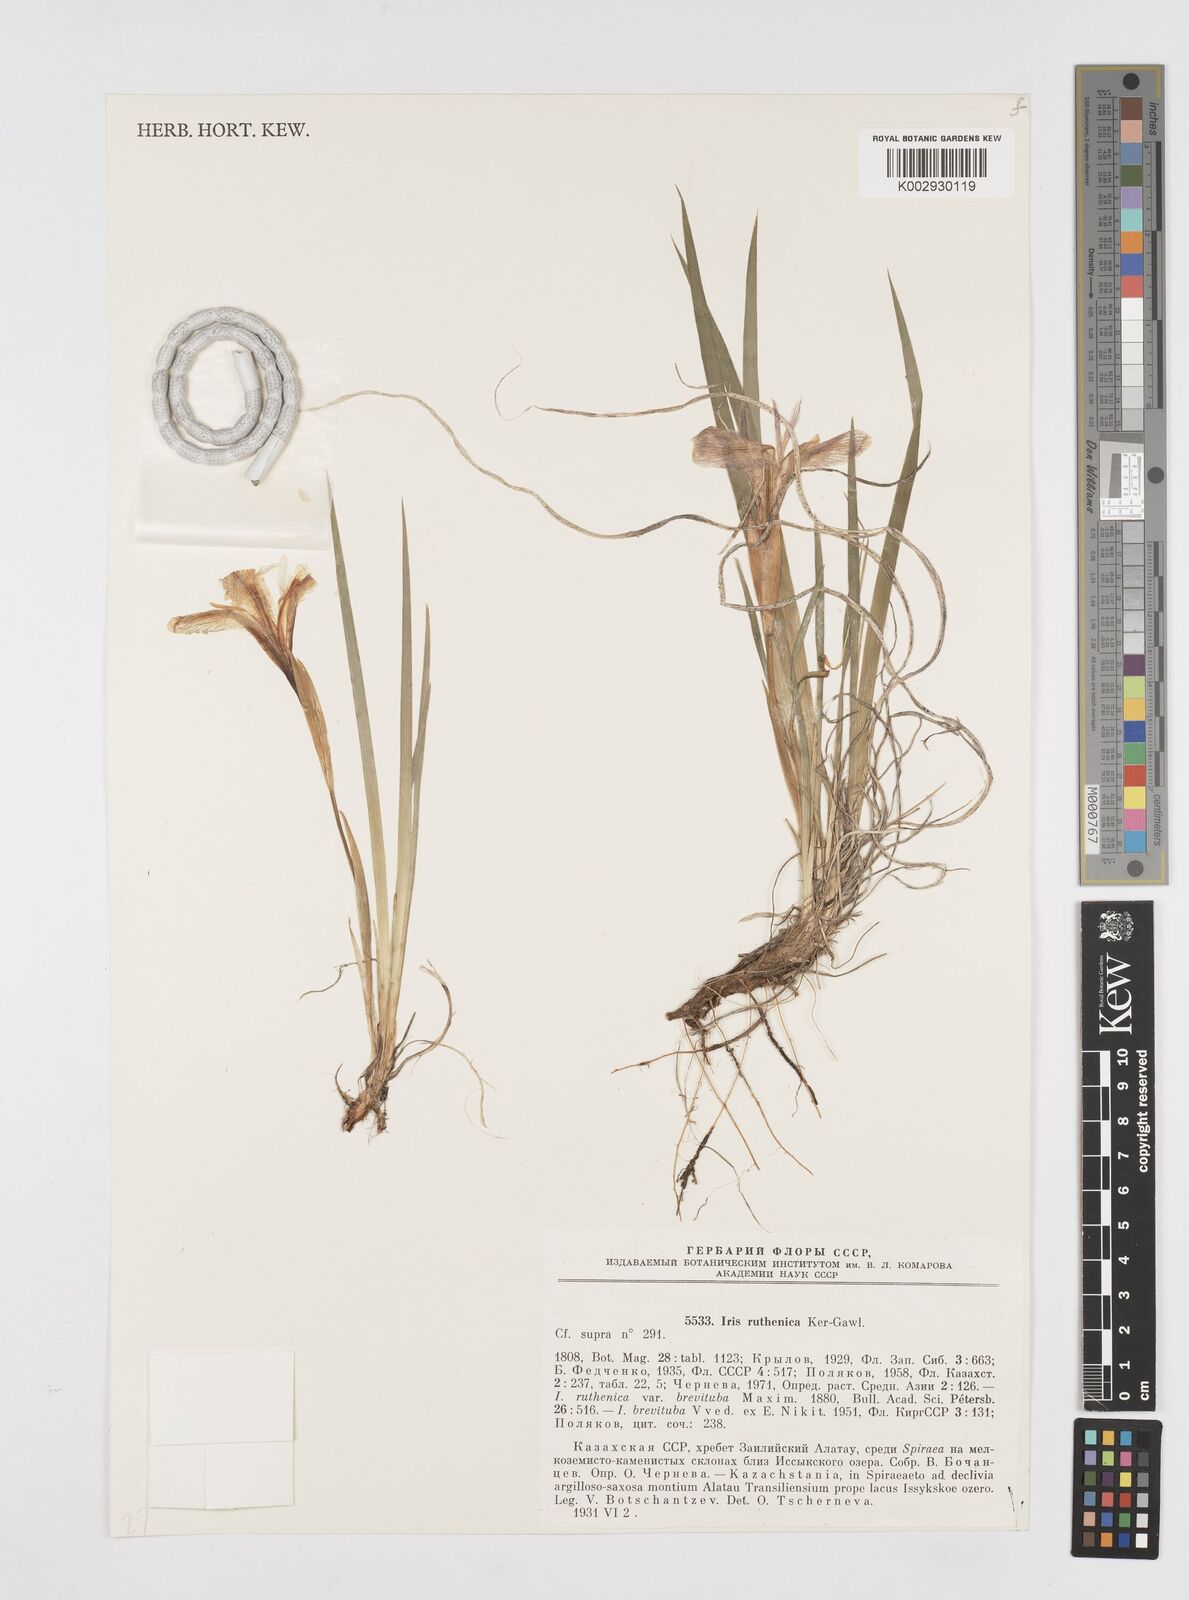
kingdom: Plantae
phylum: Tracheophyta
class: Liliopsida
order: Asparagales
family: Iridaceae
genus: Iris
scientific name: Iris ruthenica
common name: Purple-bract iris
